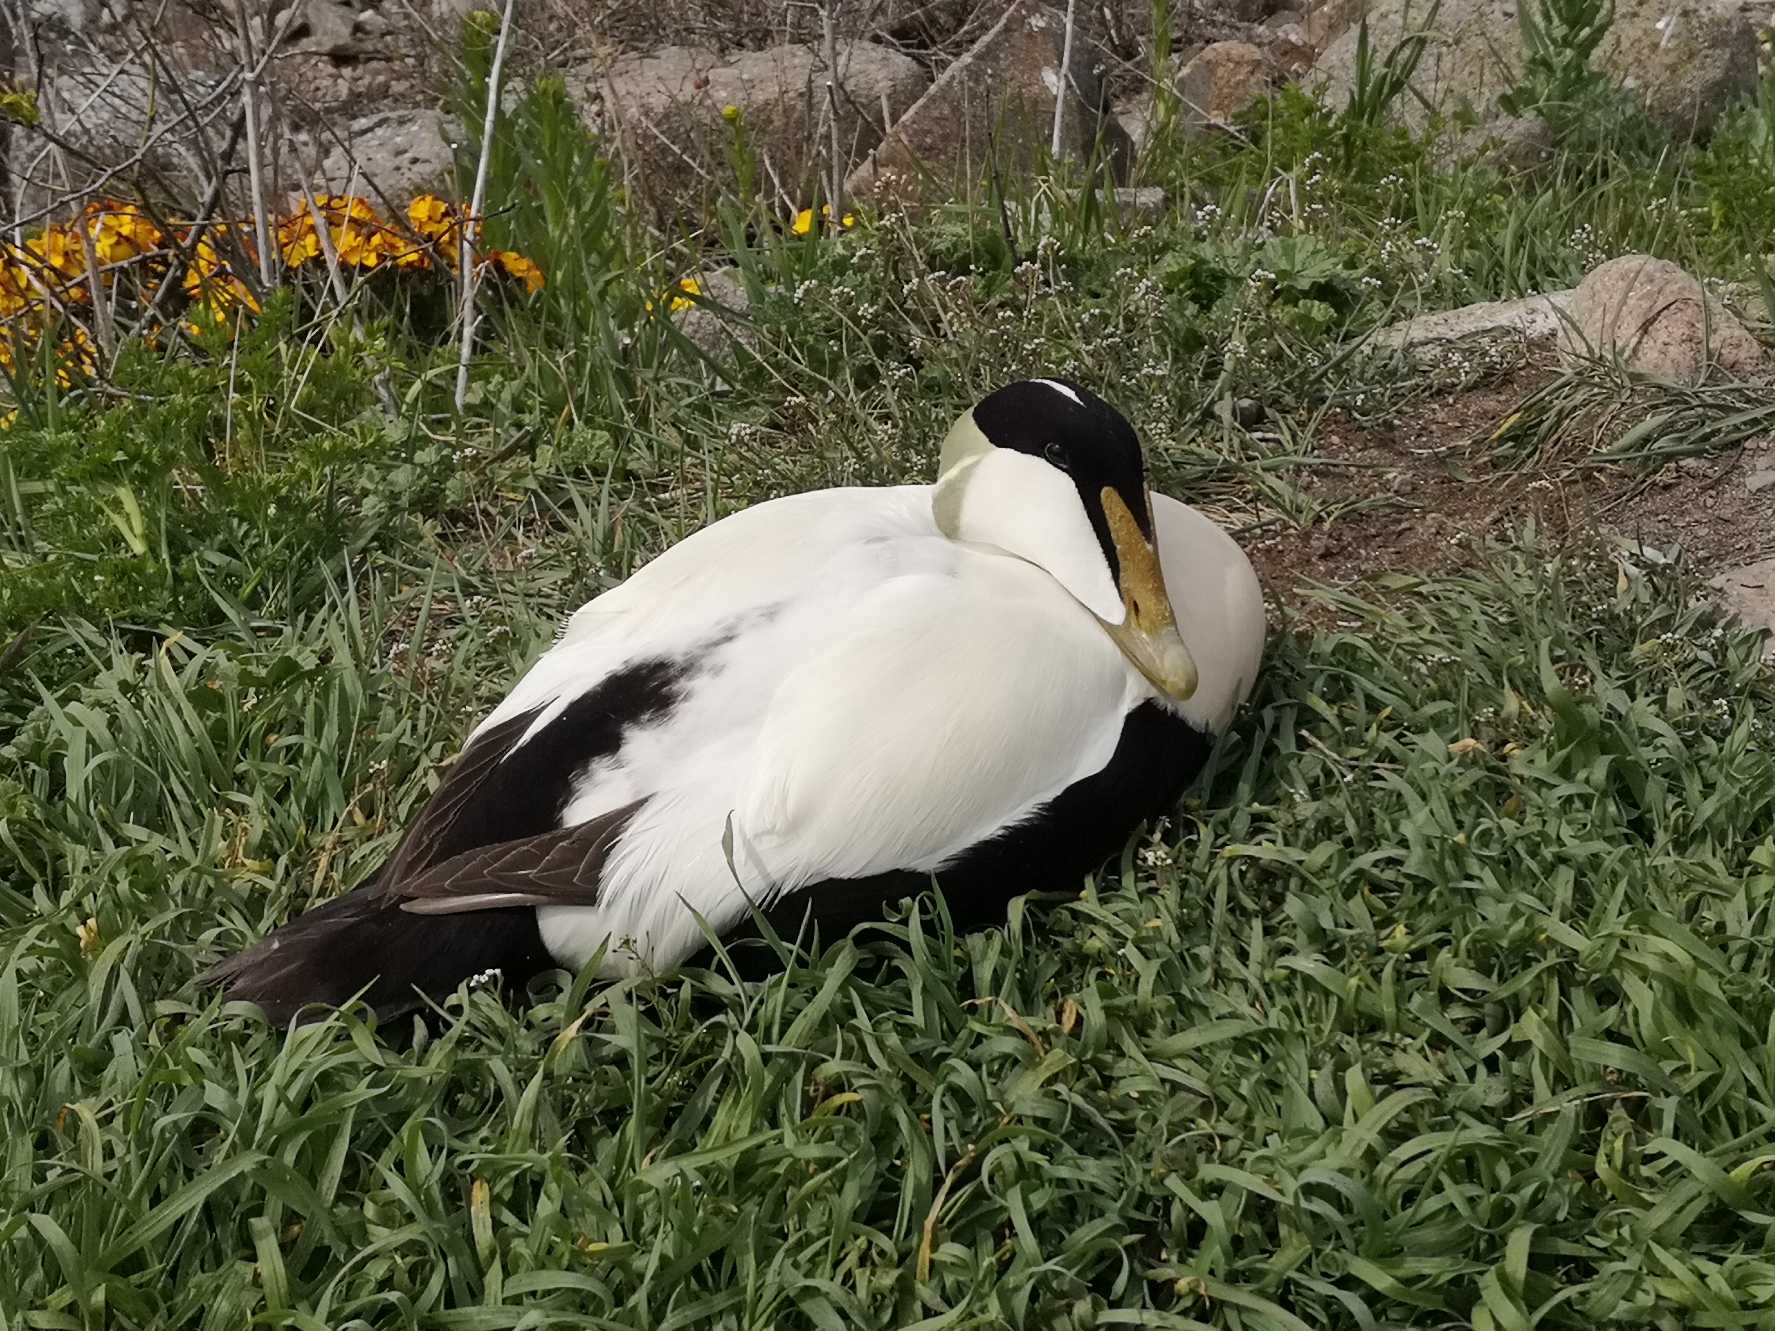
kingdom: Animalia
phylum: Chordata
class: Aves
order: Anseriformes
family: Anatidae
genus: Somateria
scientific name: Somateria mollissima
